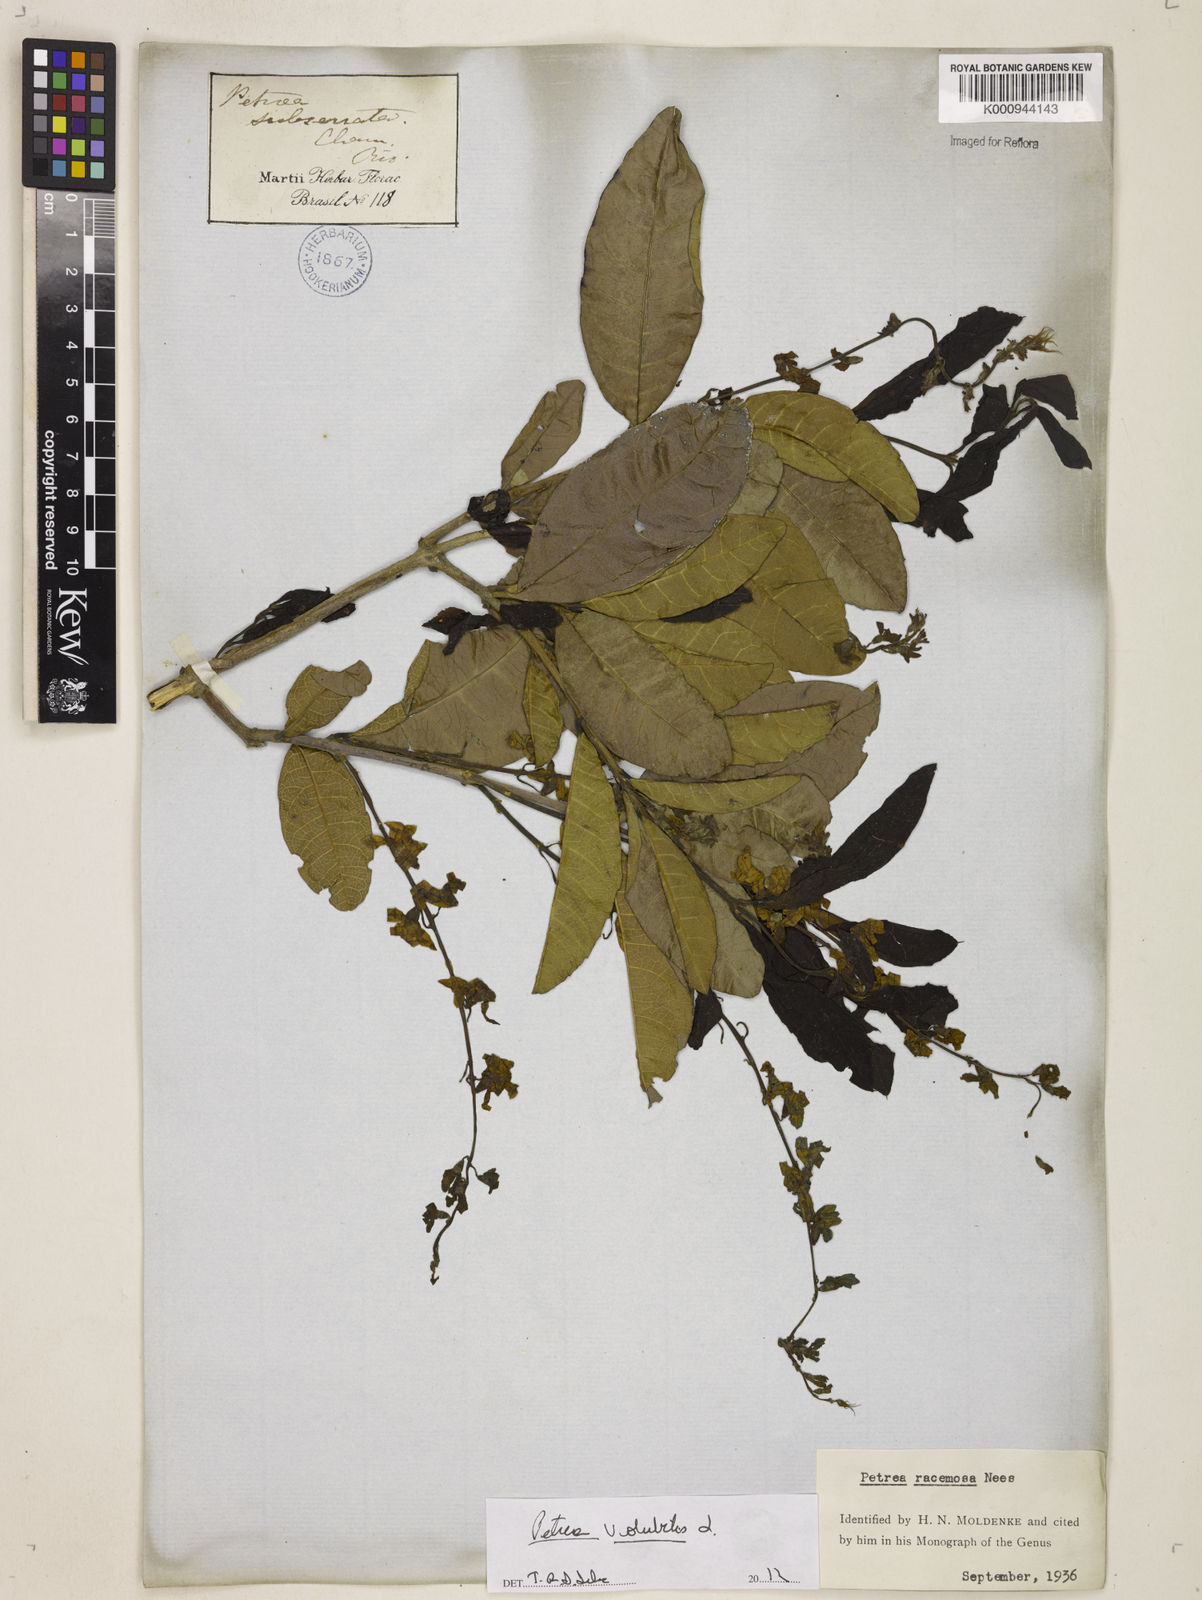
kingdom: Plantae
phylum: Tracheophyta
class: Magnoliopsida
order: Lamiales
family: Verbenaceae
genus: Petrea
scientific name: Petrea volubilis
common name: Queen's-wreath
